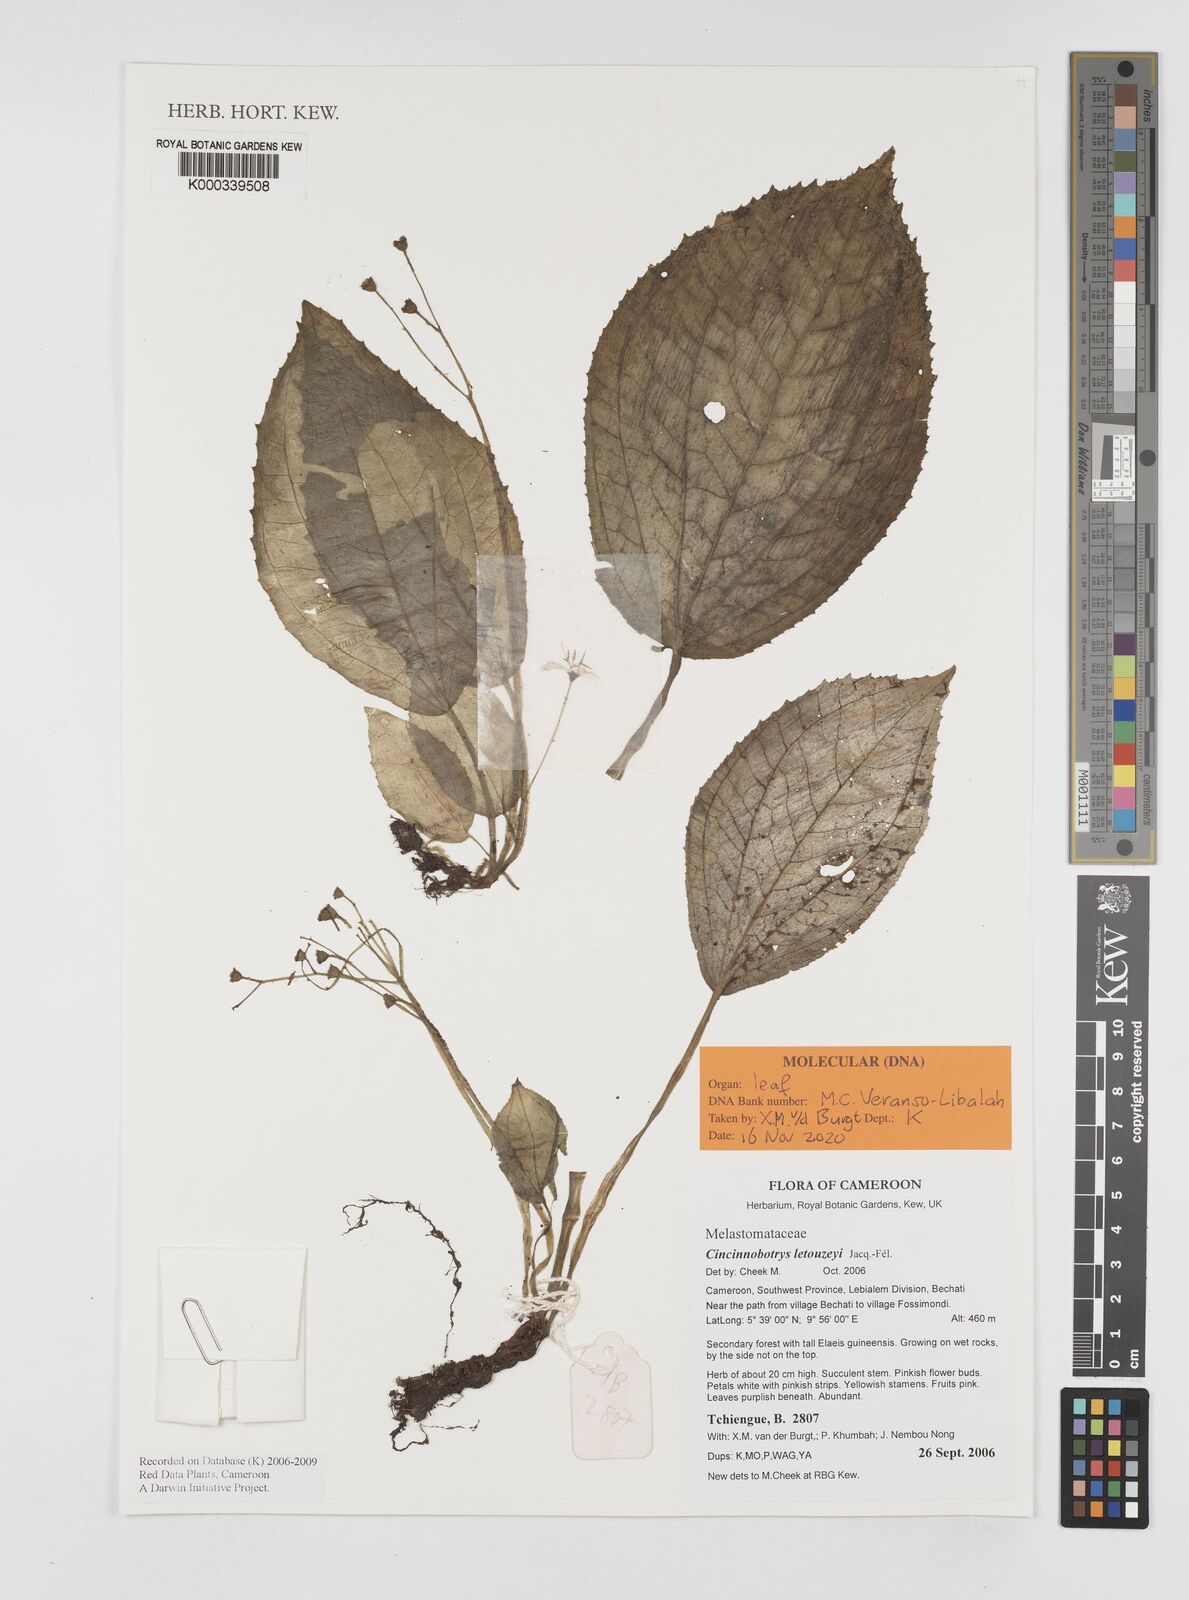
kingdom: Plantae
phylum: Tracheophyta
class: Magnoliopsida
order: Myrtales
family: Melastomataceae
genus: Cincinnobotrys
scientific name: Cincinnobotrys
